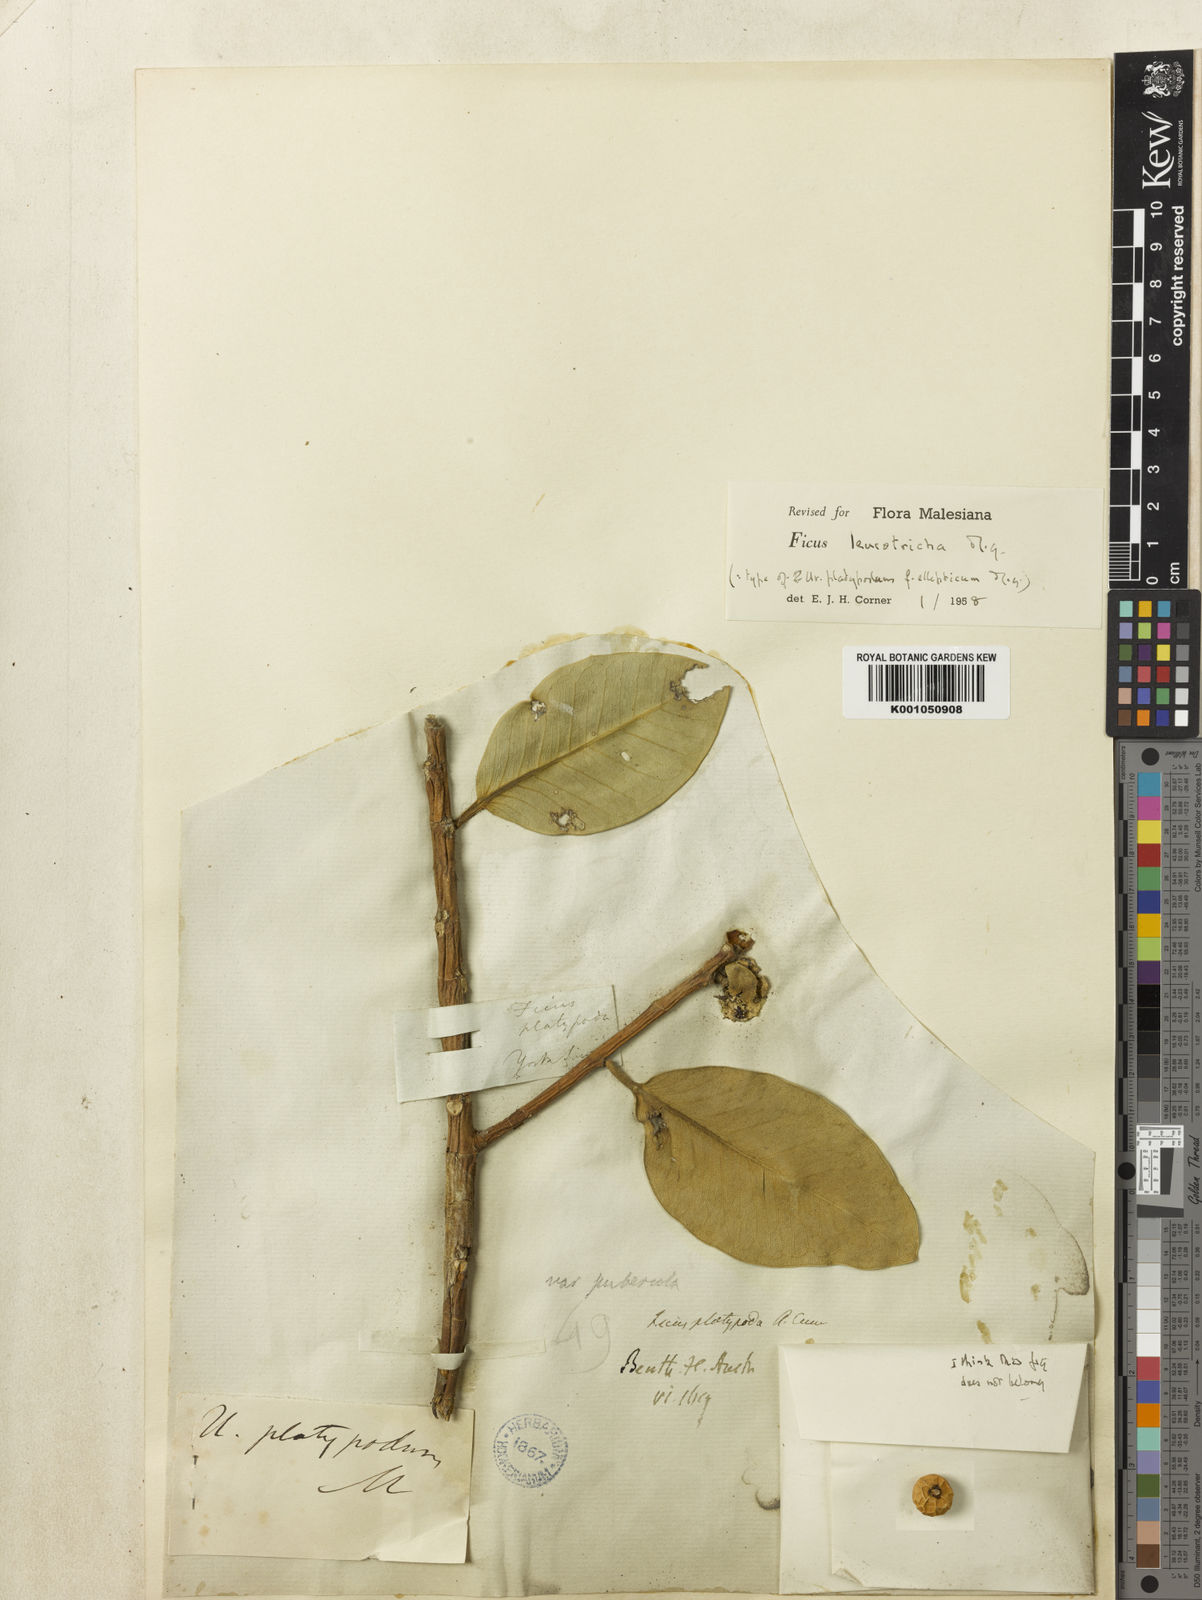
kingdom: Plantae
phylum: Tracheophyta
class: Magnoliopsida
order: Rosales
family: Moraceae
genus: Ficus
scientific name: Ficus leucotricha
